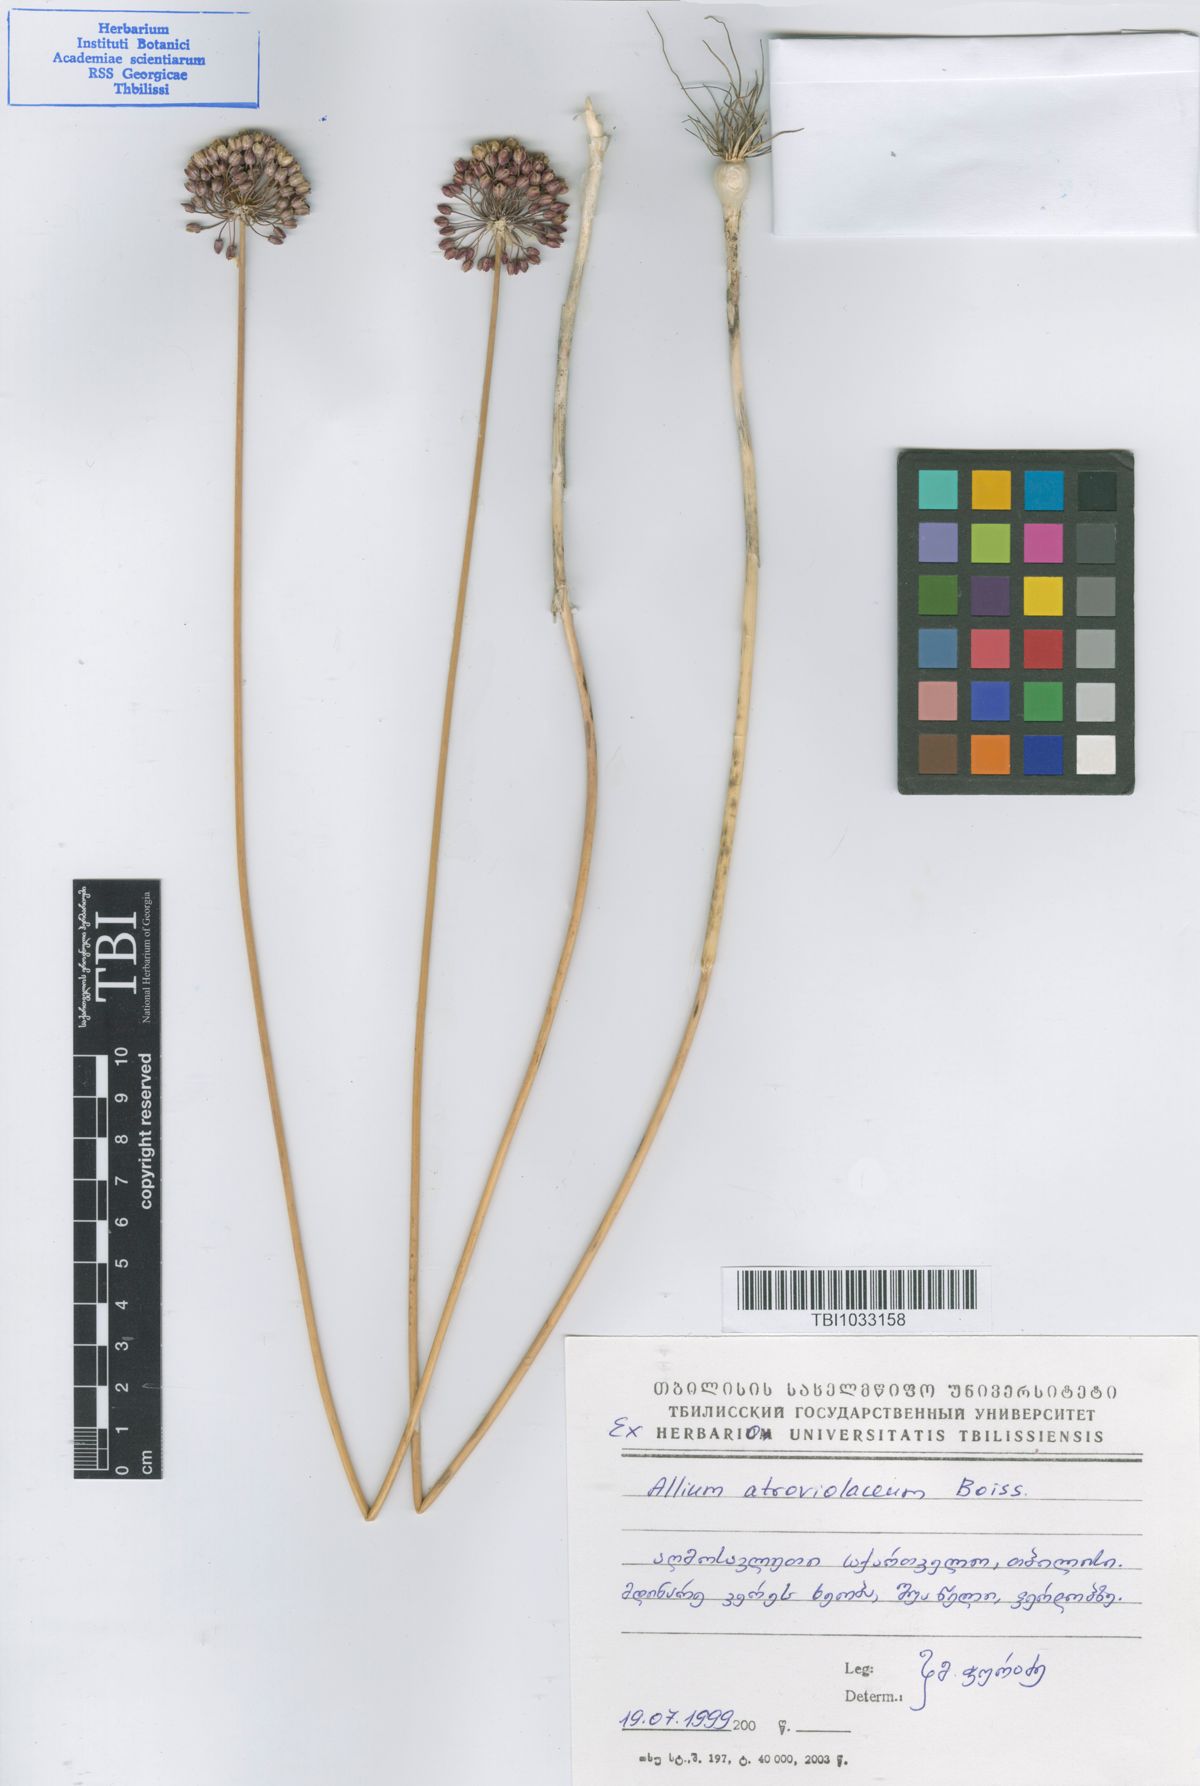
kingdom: Plantae
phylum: Tracheophyta
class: Liliopsida
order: Asparagales
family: Amaryllidaceae
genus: Allium
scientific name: Allium atroviolaceum
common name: Broadleaf wild leek
